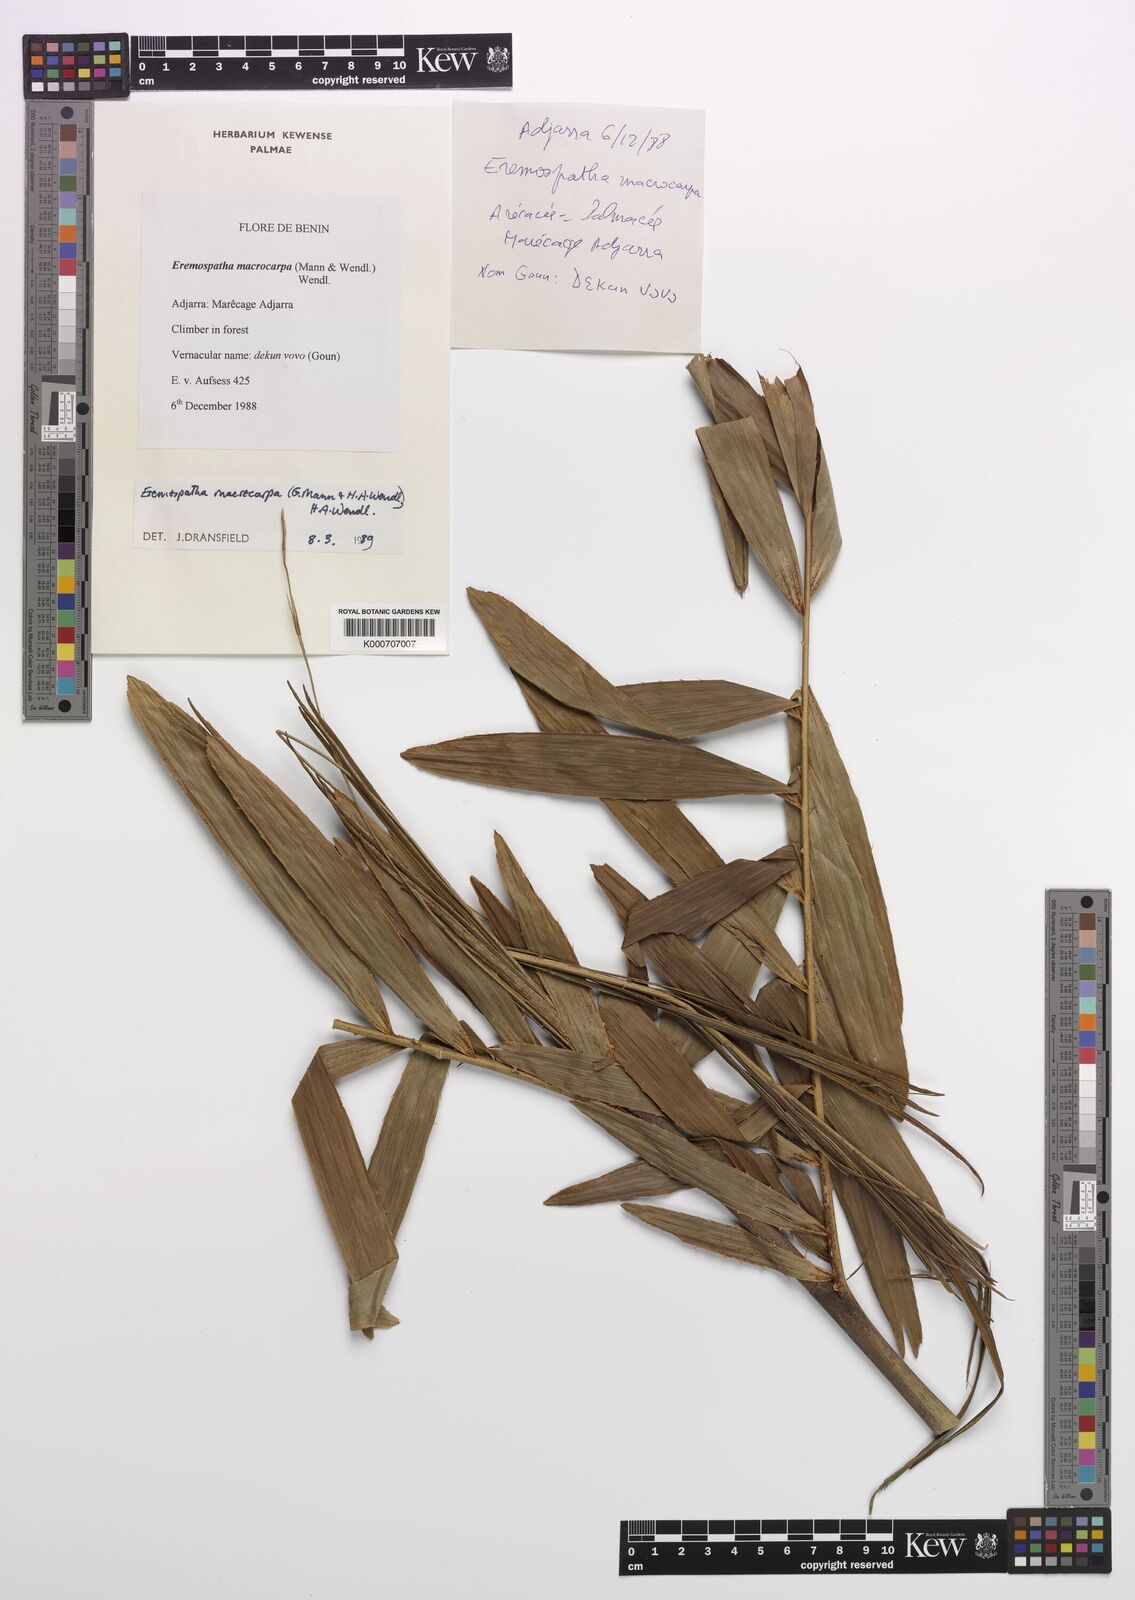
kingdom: Plantae
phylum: Tracheophyta
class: Liliopsida
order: Arecales
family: Arecaceae
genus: Eremospatha
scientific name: Eremospatha macrocarpa
